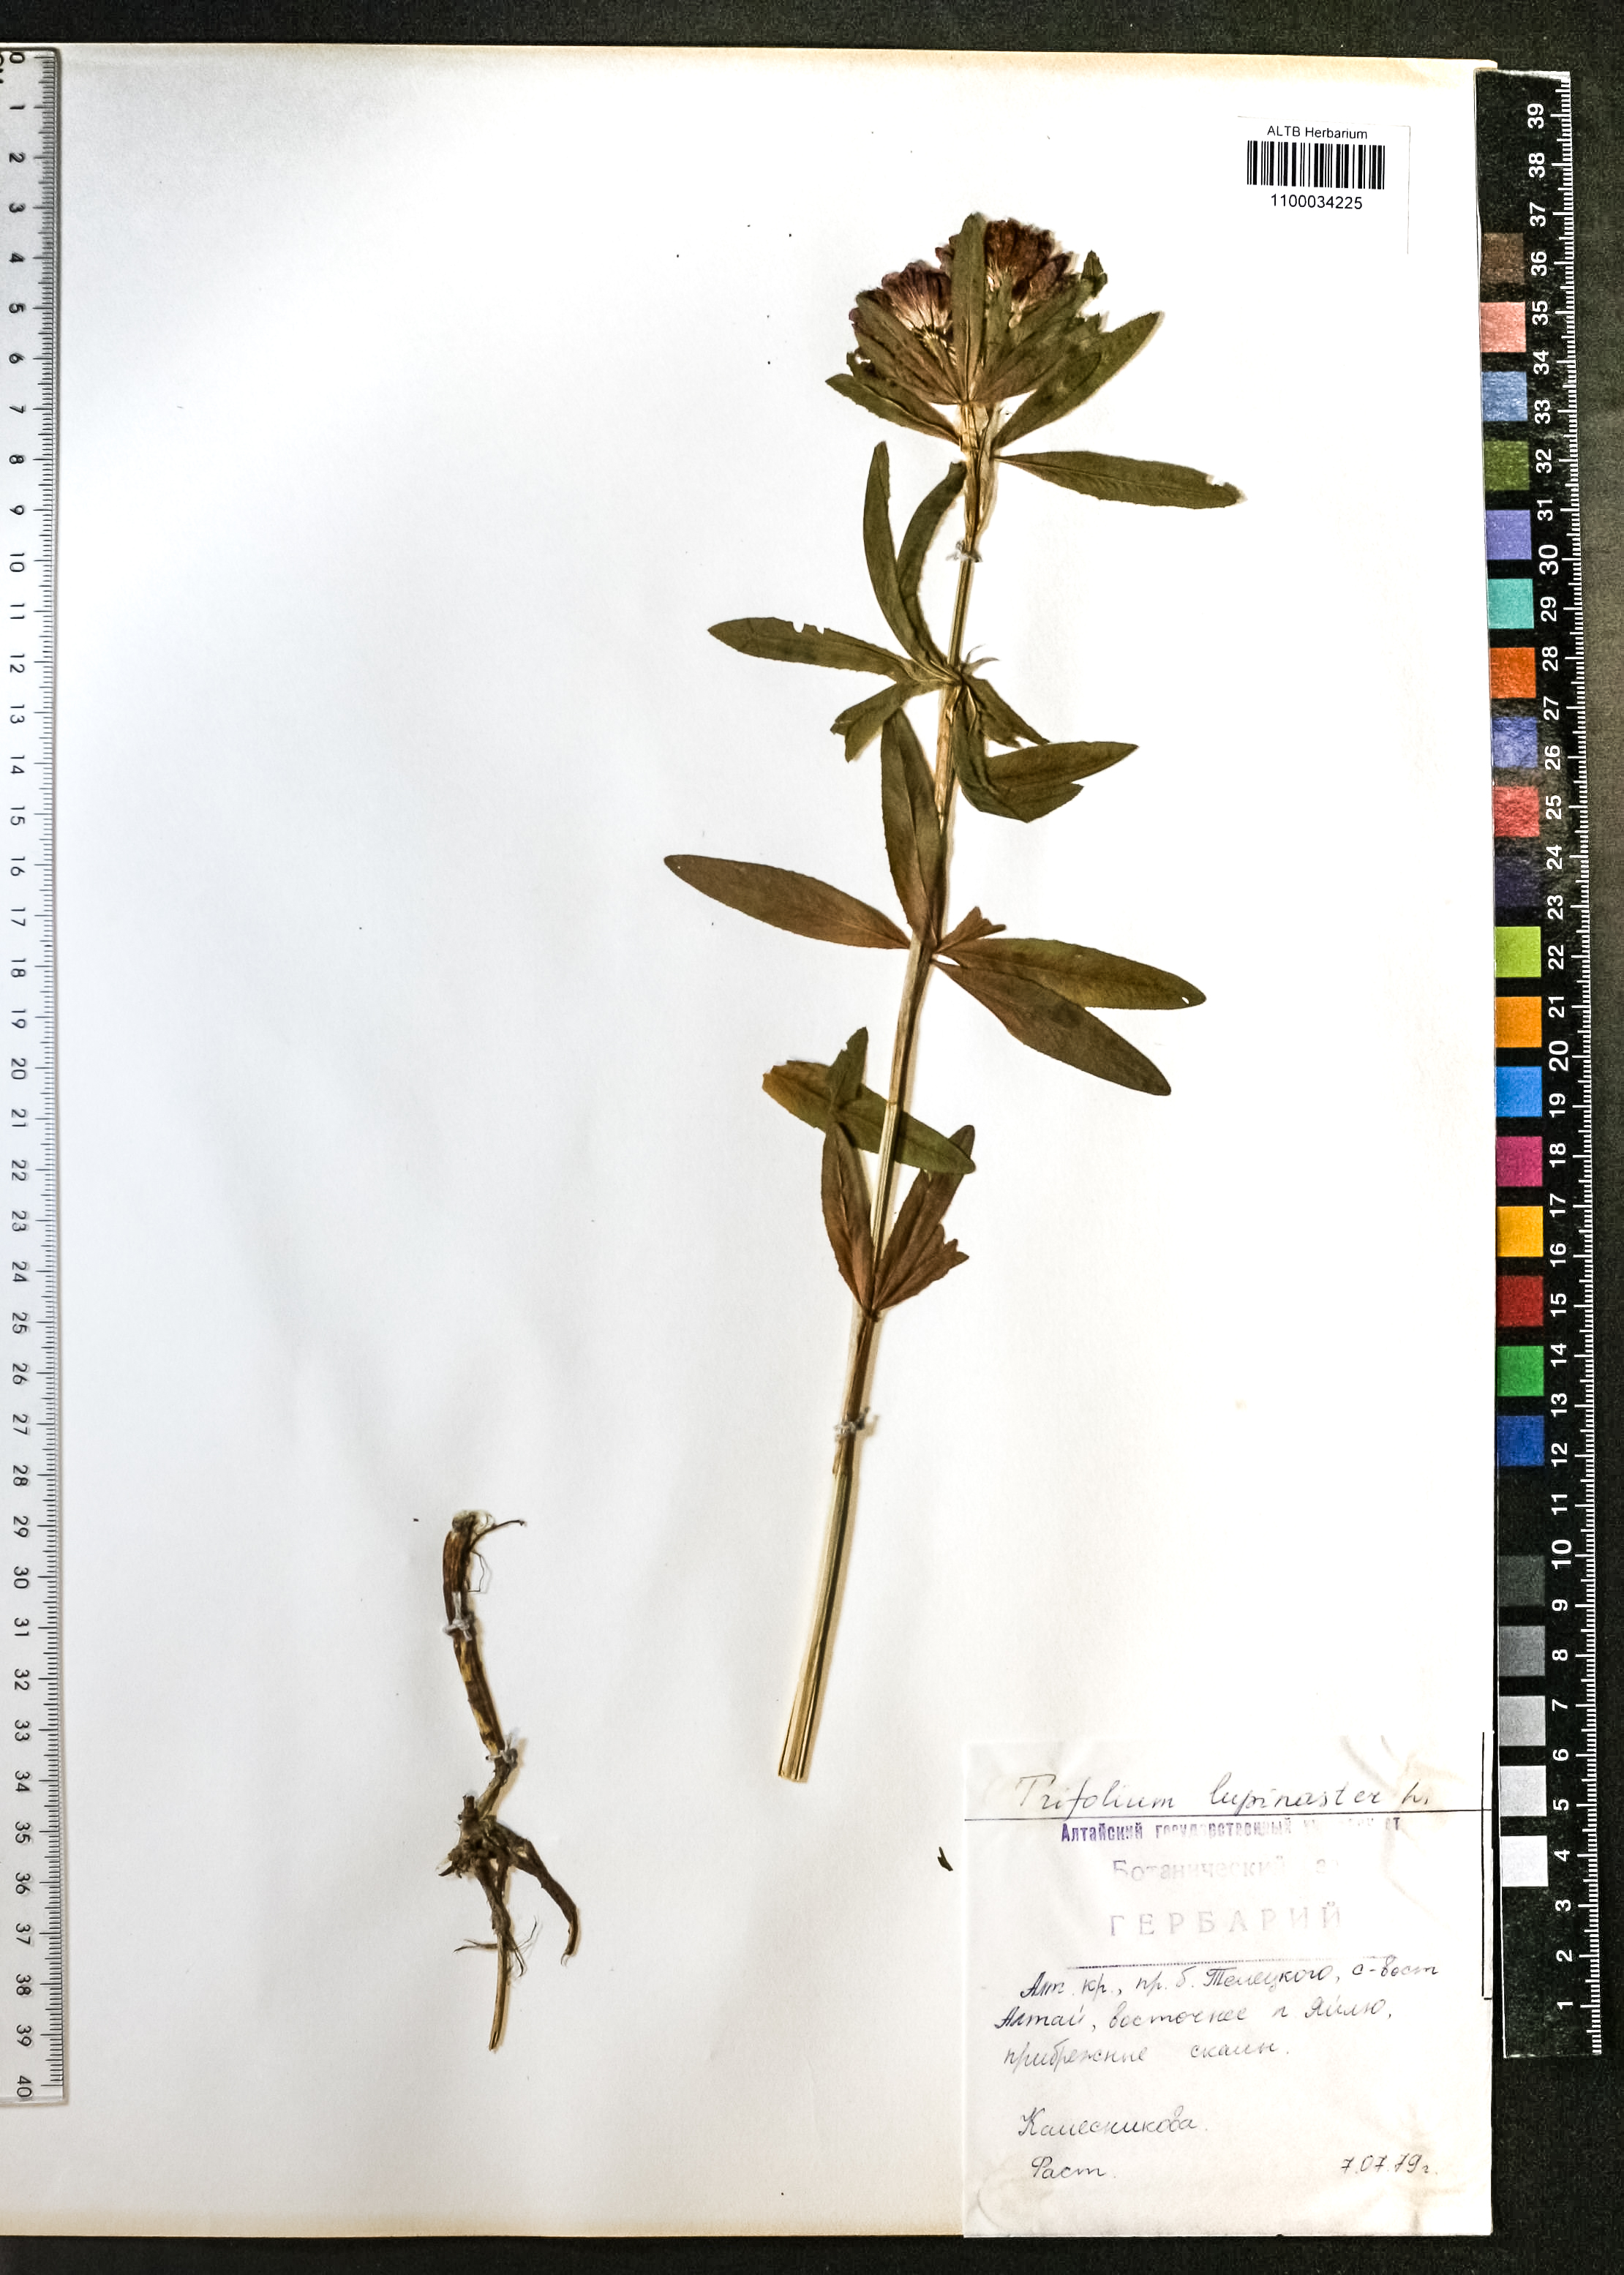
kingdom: Plantae
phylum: Tracheophyta
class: Magnoliopsida
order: Fabales
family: Fabaceae
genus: Trifolium
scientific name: Trifolium lupinaster
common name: Lupine clover
